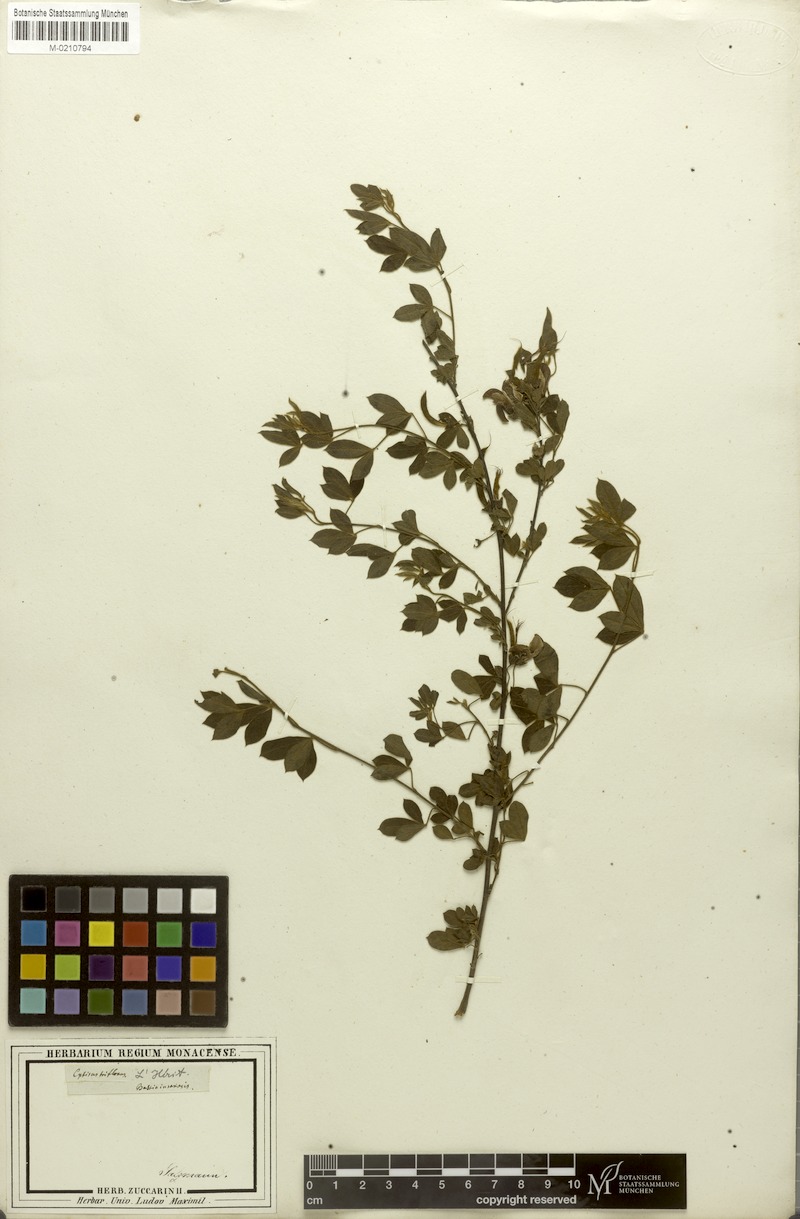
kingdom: Plantae
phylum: Tracheophyta
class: Magnoliopsida
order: Fabales
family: Fabaceae
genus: Cytisus
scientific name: Cytisus villosus
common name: Hairybroom
